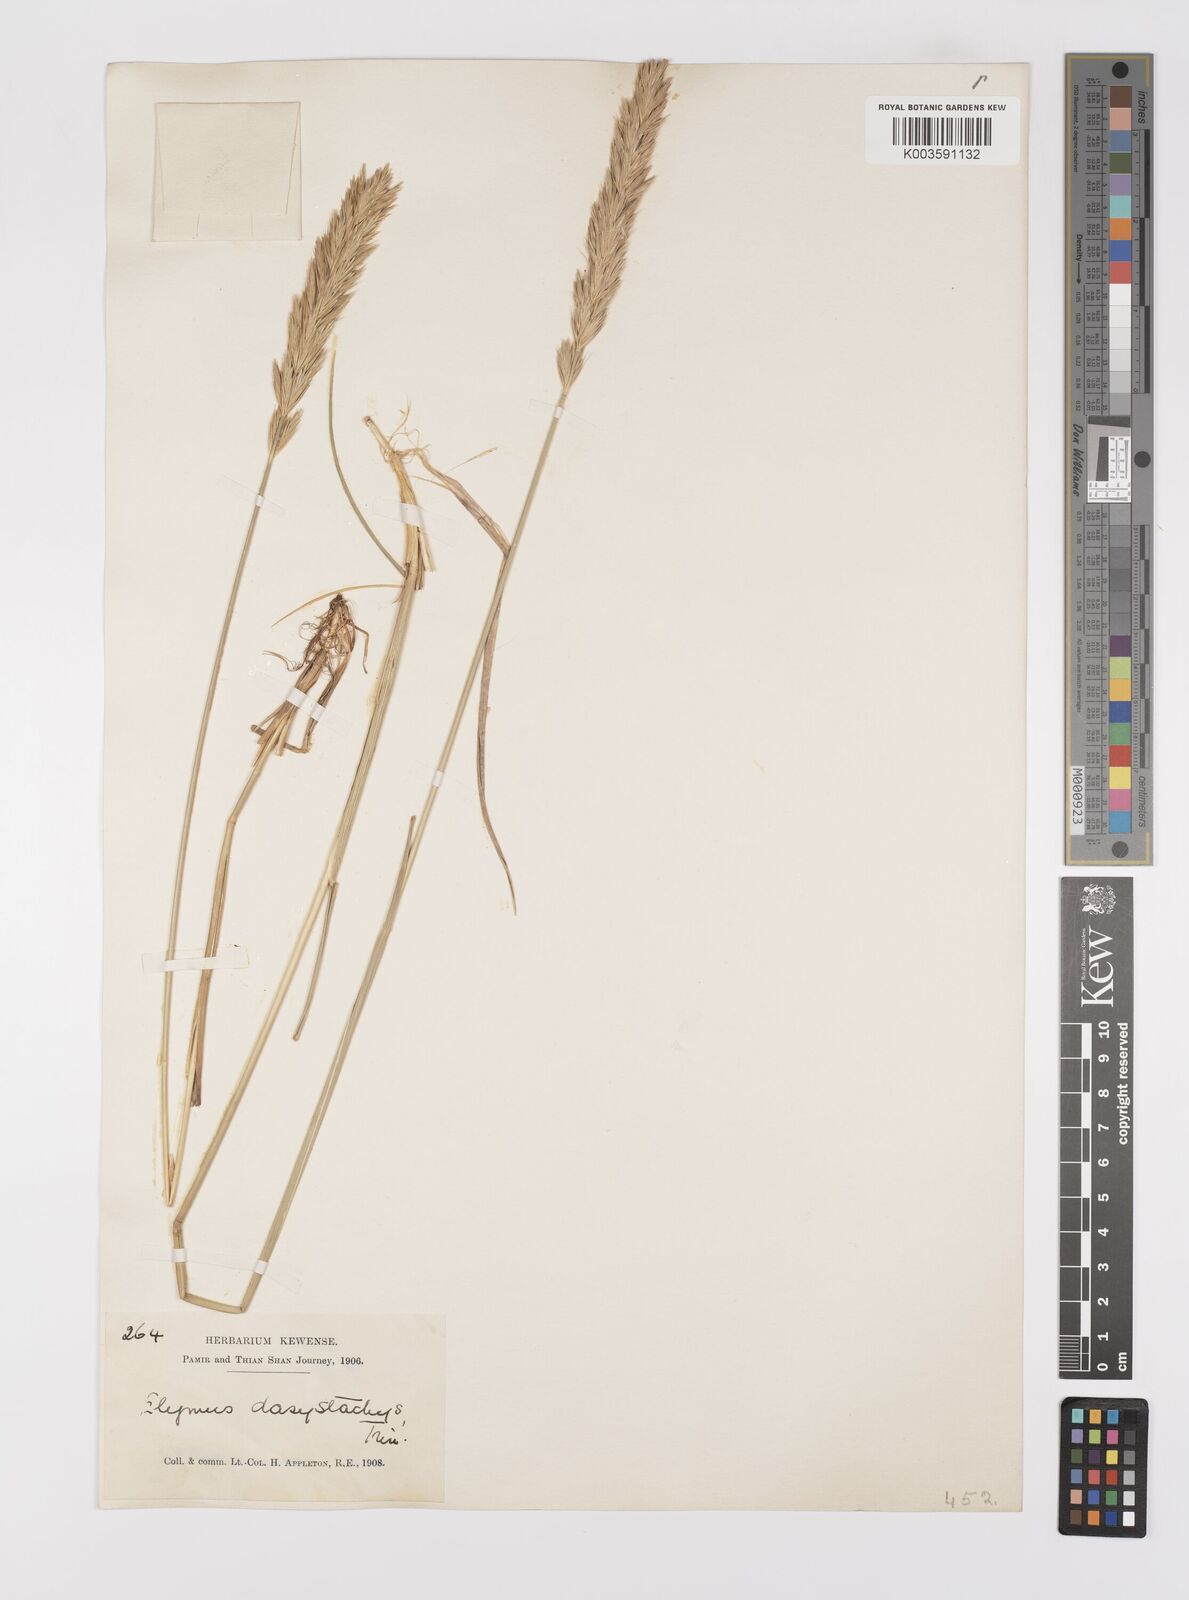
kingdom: Plantae
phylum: Tracheophyta
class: Liliopsida
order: Poales
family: Poaceae
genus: Leymus
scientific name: Leymus secalinus
